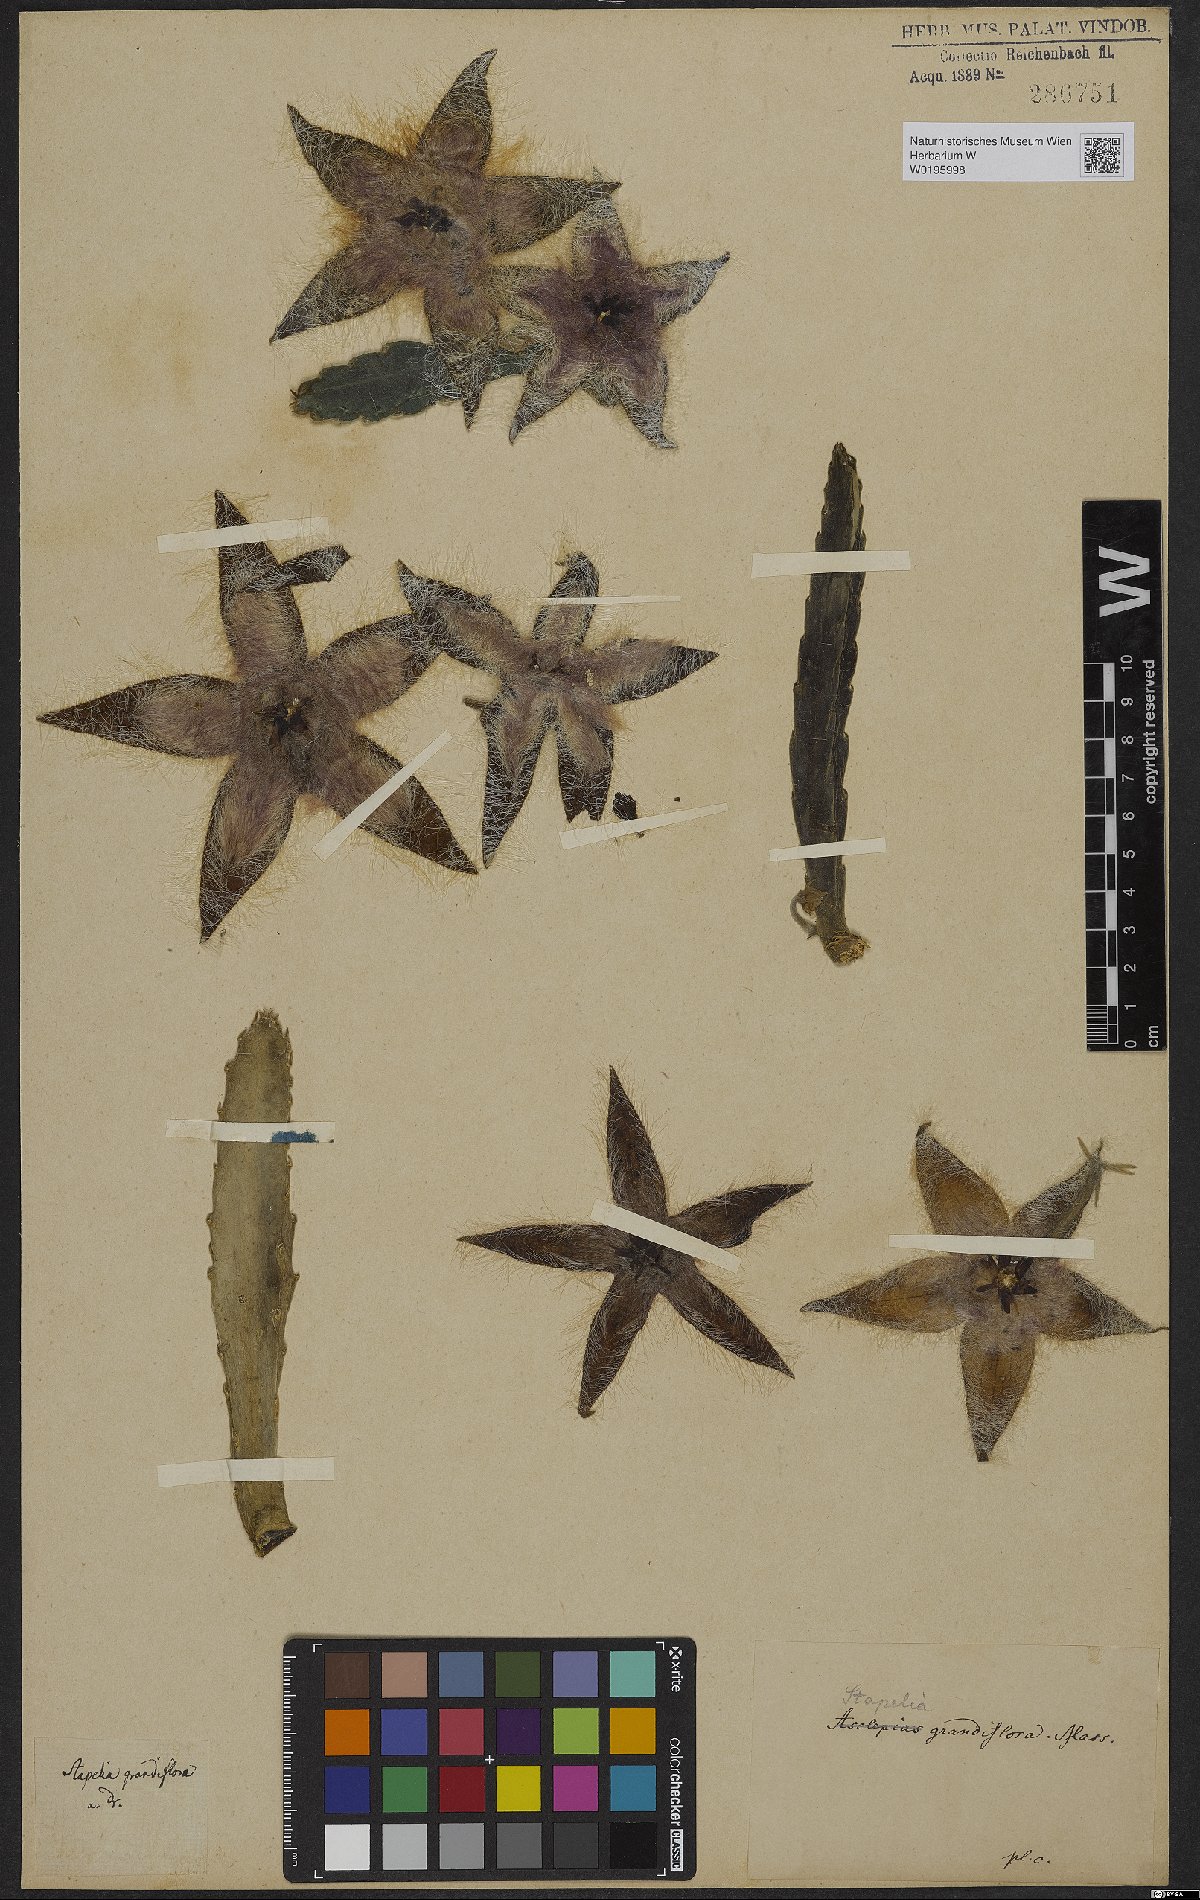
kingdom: Plantae
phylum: Tracheophyta
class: Magnoliopsida
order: Gentianales
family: Apocynaceae
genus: Ceropegia
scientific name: Ceropegia grandiflora
